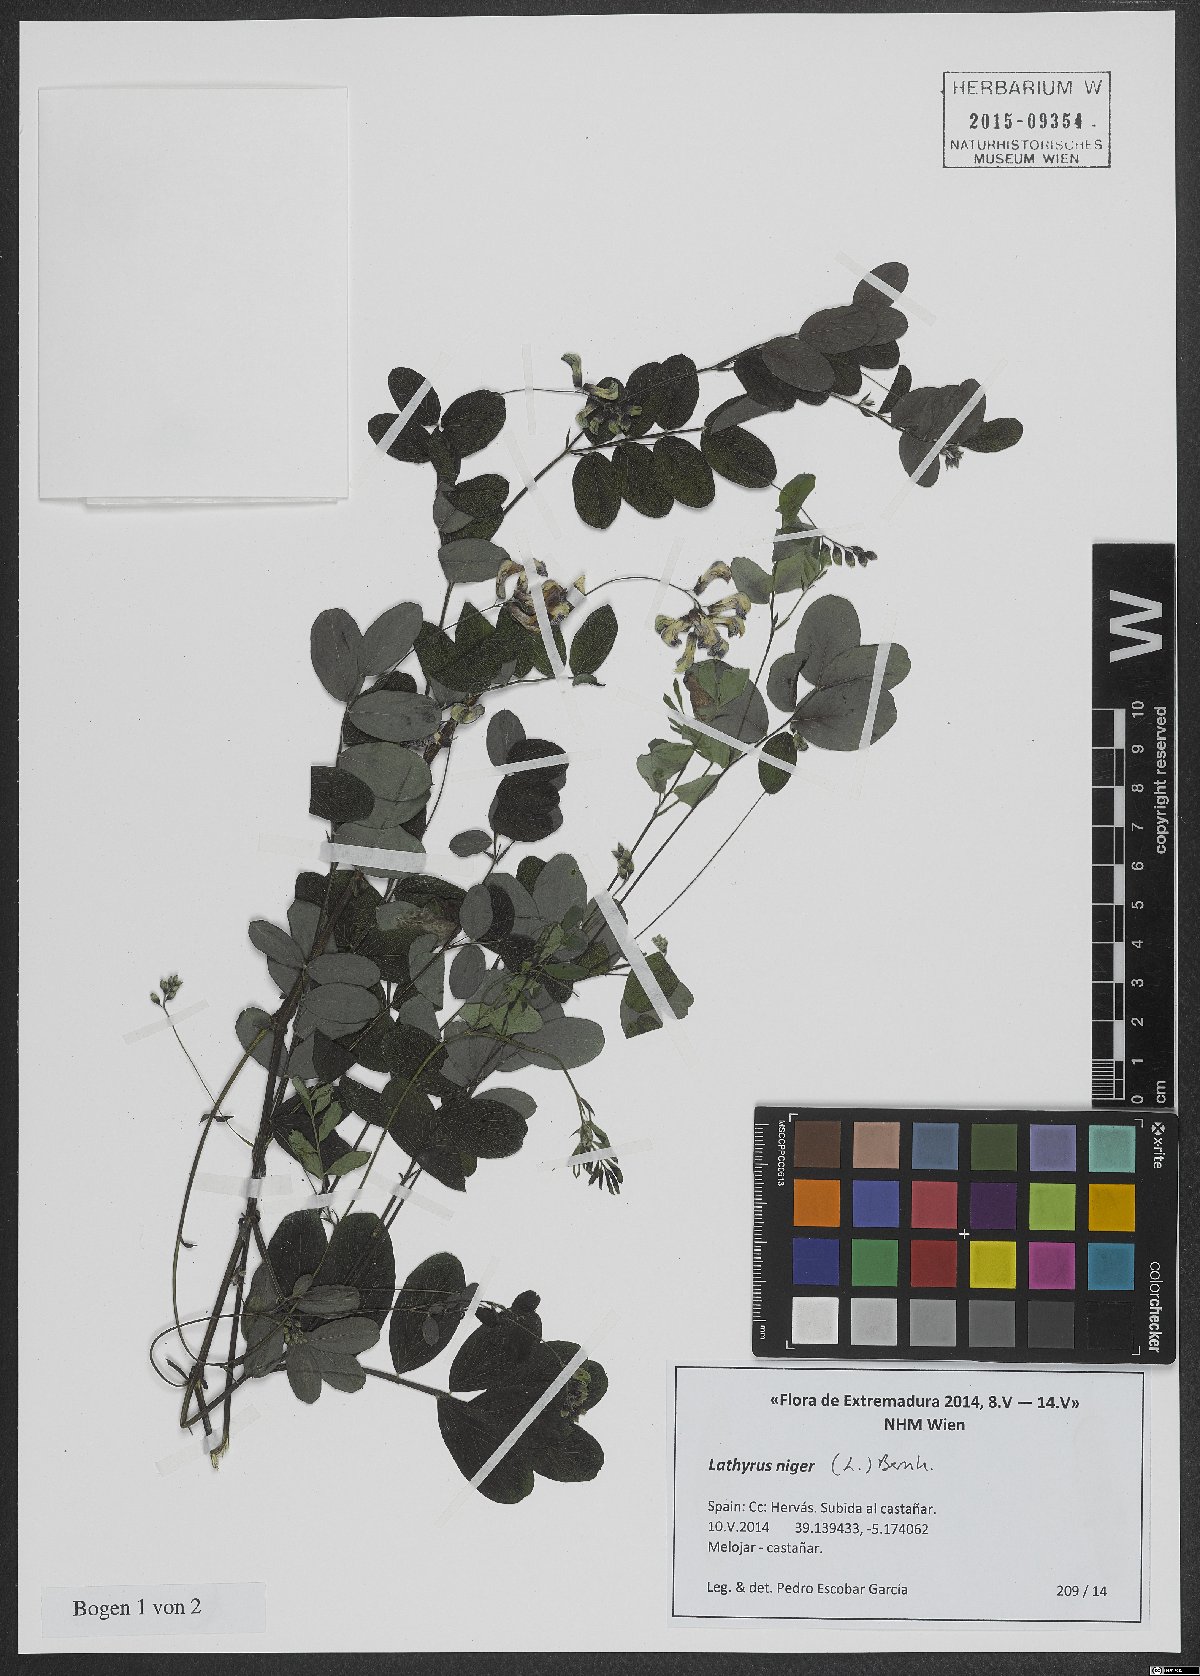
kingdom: Plantae
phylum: Tracheophyta
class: Magnoliopsida
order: Fabales
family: Fabaceae
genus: Lathyrus
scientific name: Lathyrus niger
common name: Black pea
